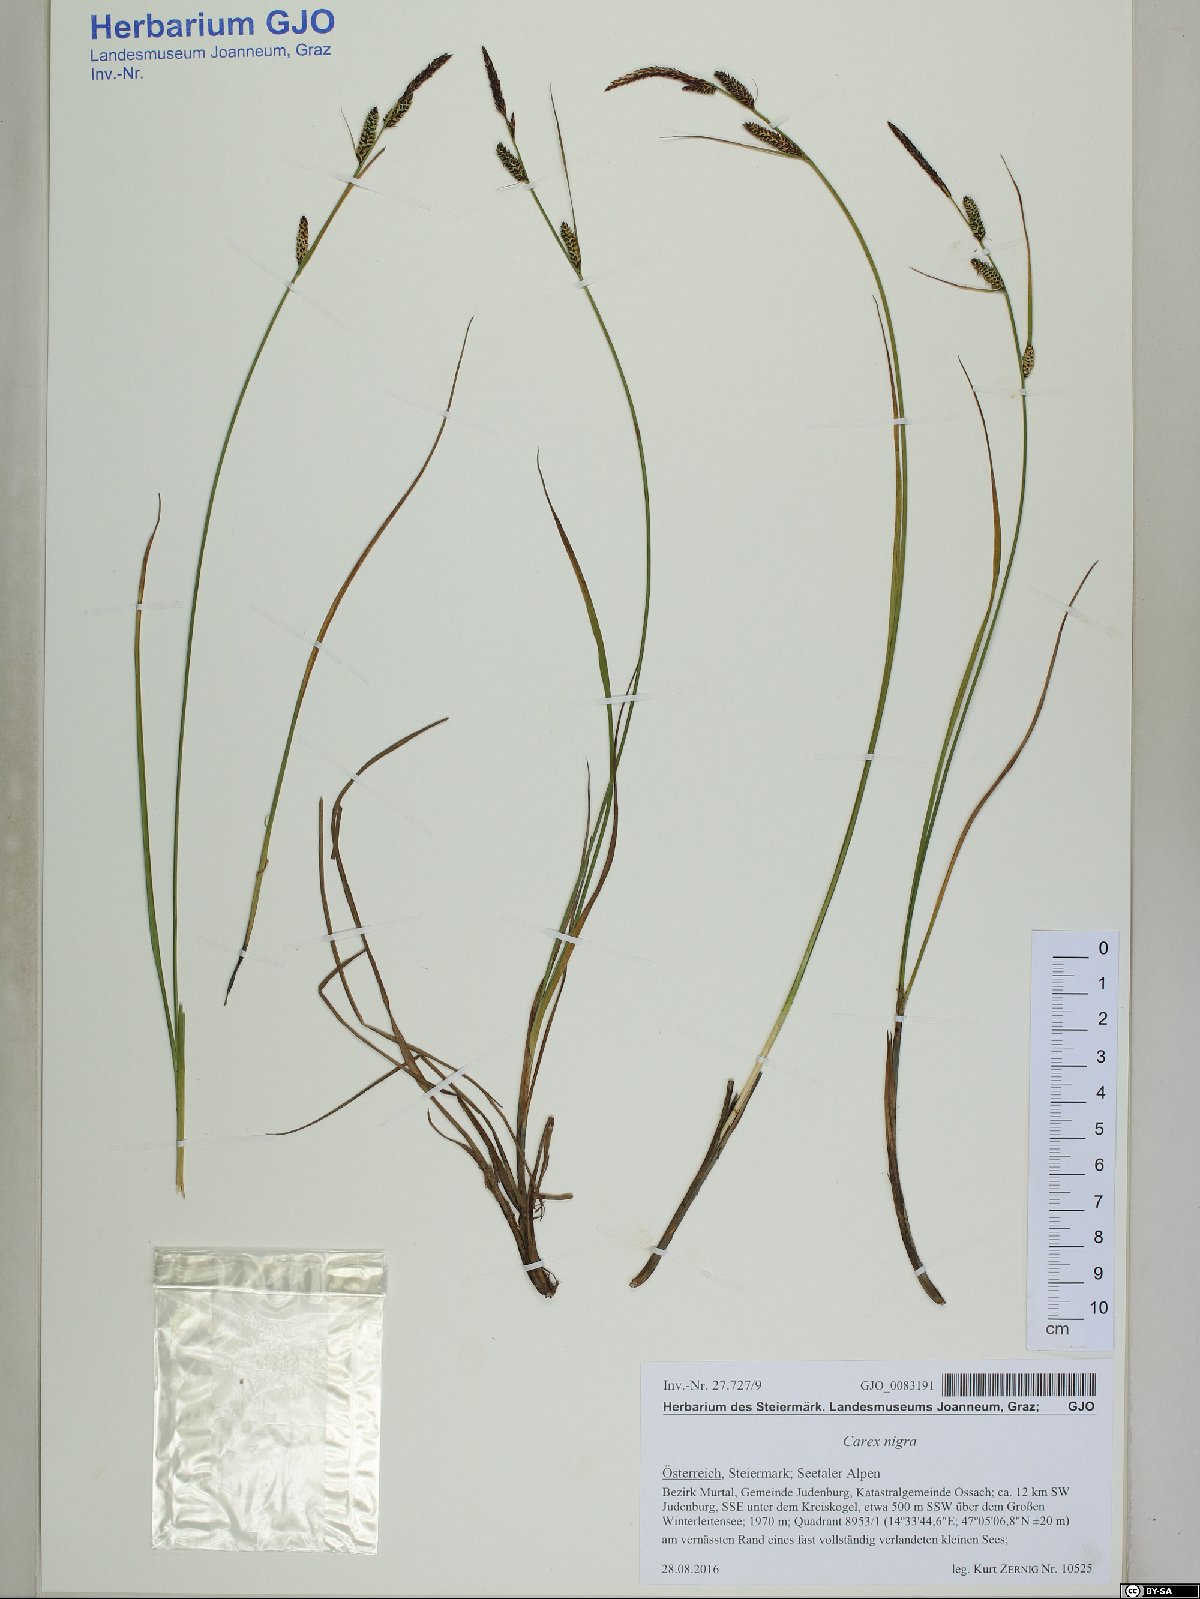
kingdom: Plantae
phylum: Tracheophyta
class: Liliopsida
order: Poales
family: Cyperaceae
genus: Carex
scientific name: Carex nigra
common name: Common sedge
